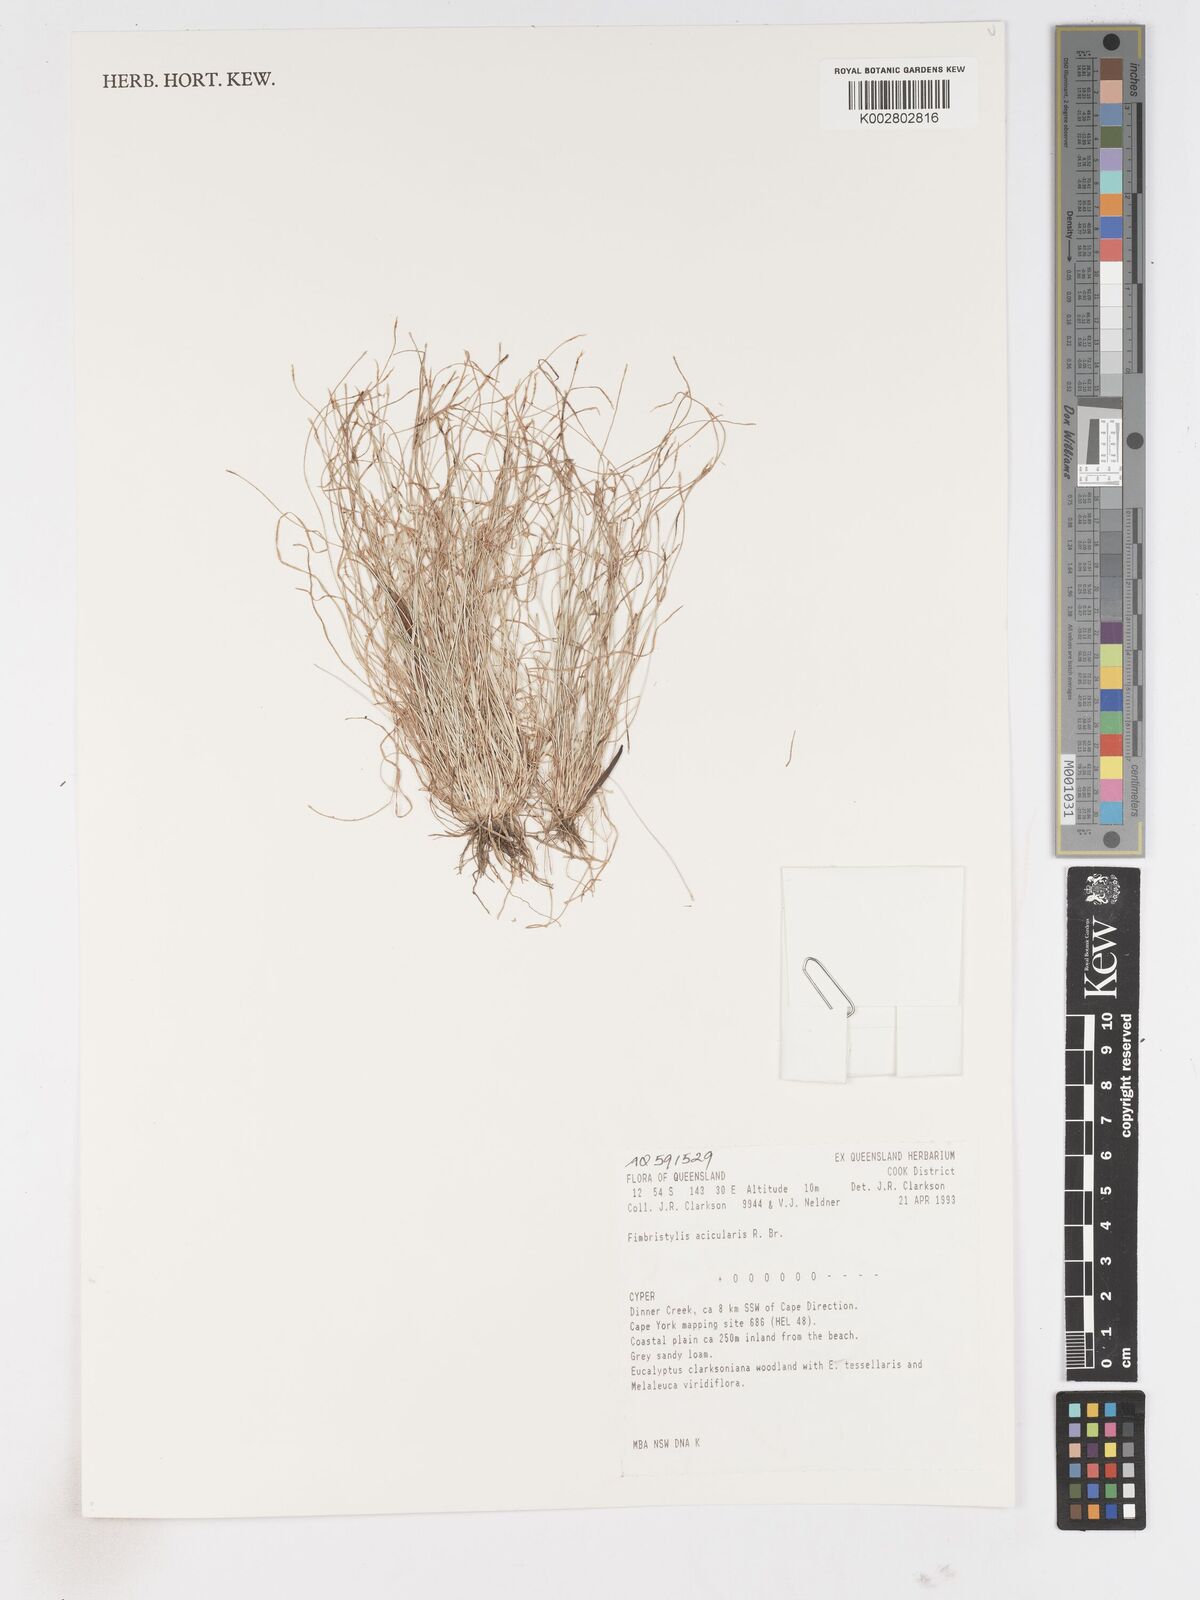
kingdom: Plantae
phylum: Tracheophyta
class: Liliopsida
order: Poales
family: Cyperaceae
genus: Fimbristylis
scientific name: Fimbristylis acicularis
